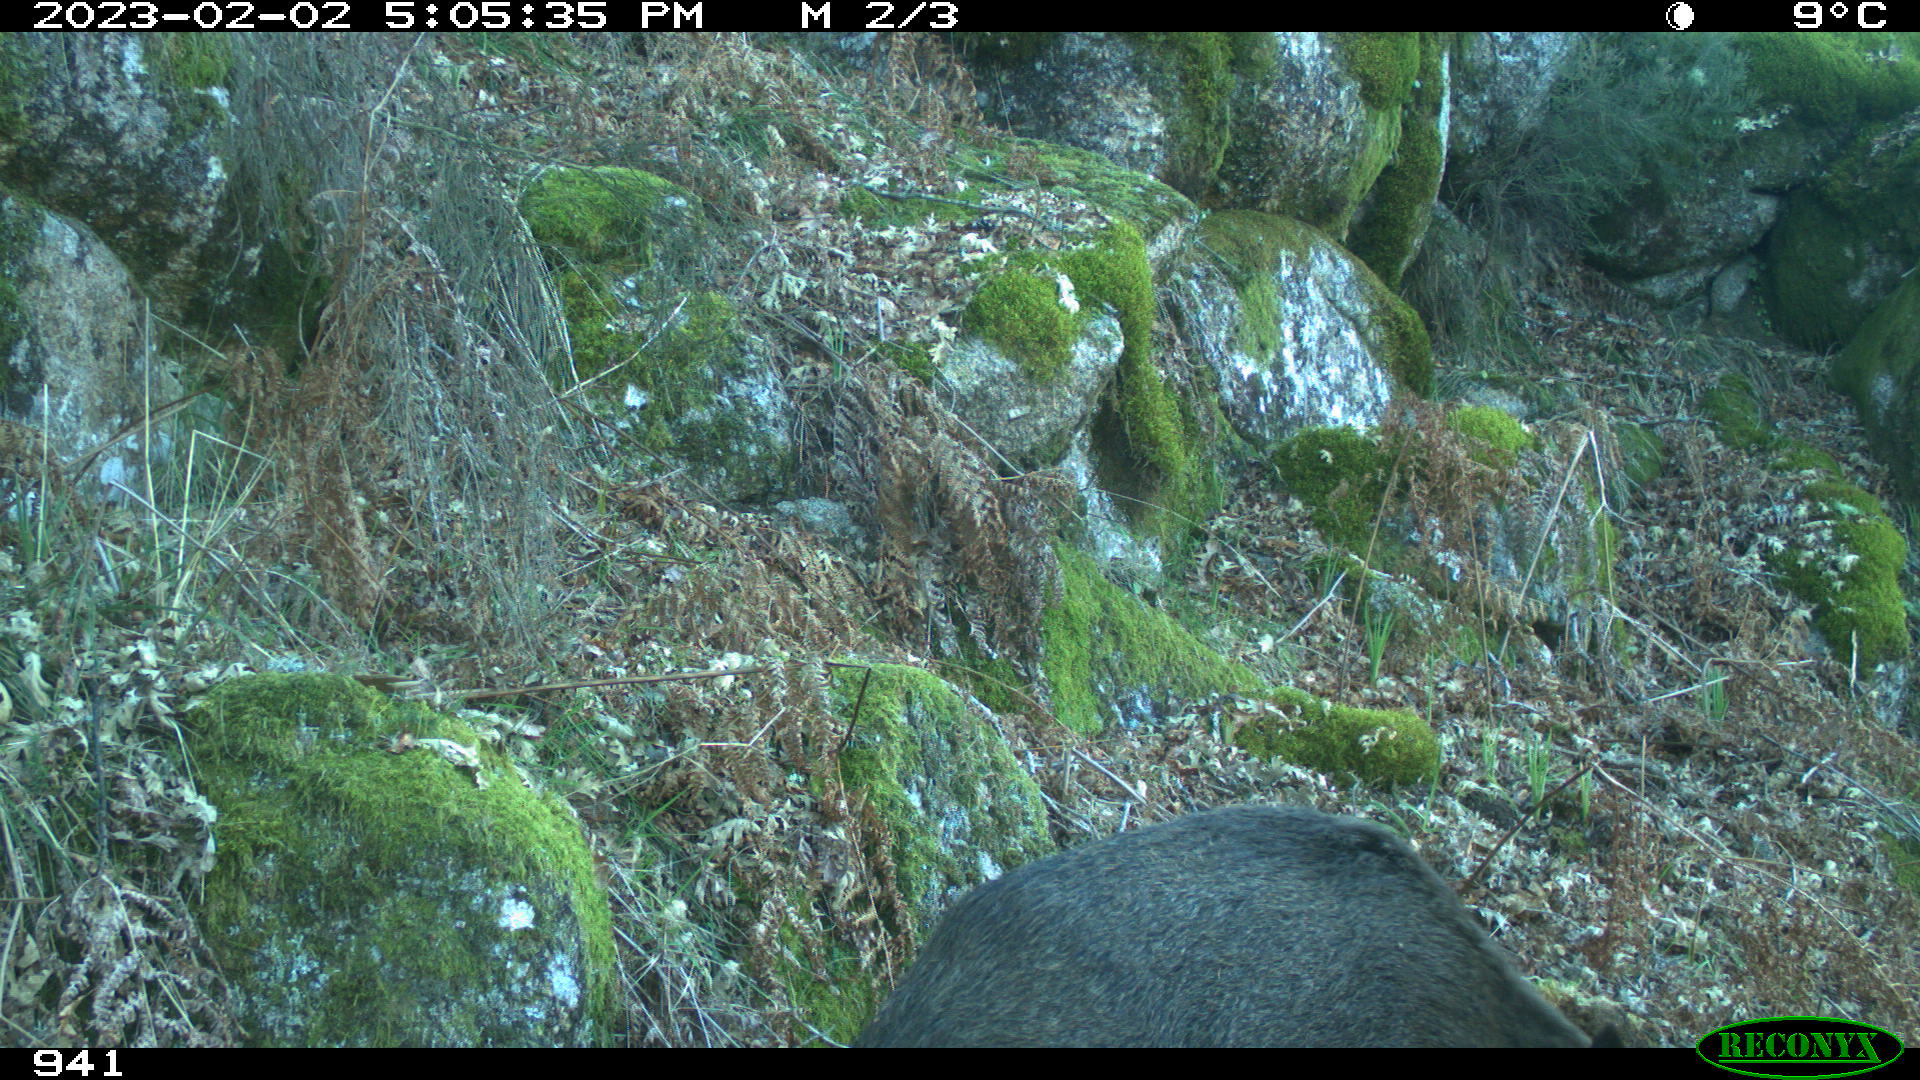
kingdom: Animalia
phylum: Chordata
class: Mammalia
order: Artiodactyla
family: Suidae
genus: Sus
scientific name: Sus scrofa
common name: Wild boar
